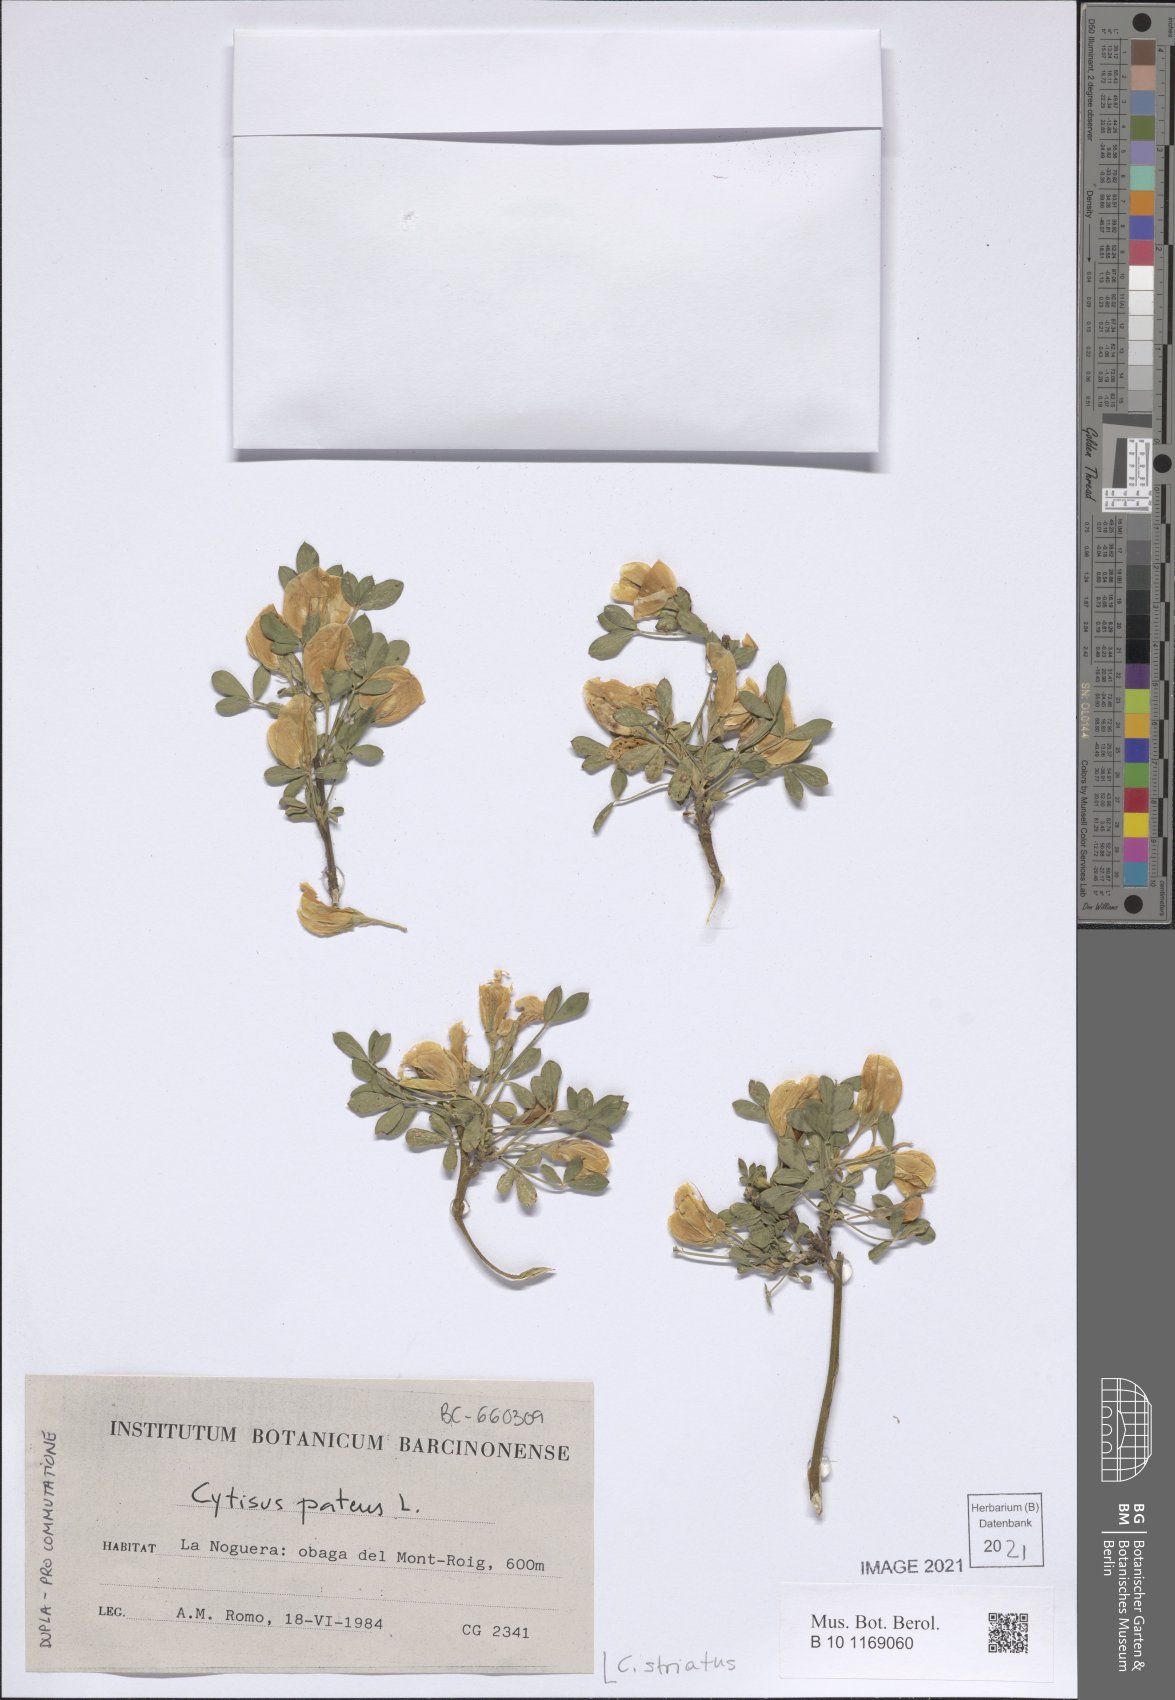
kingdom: Plantae
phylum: Tracheophyta
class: Magnoliopsida
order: Fabales
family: Fabaceae
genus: Cytisus
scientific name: Cytisus striatus
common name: Hairy-fruited broom
